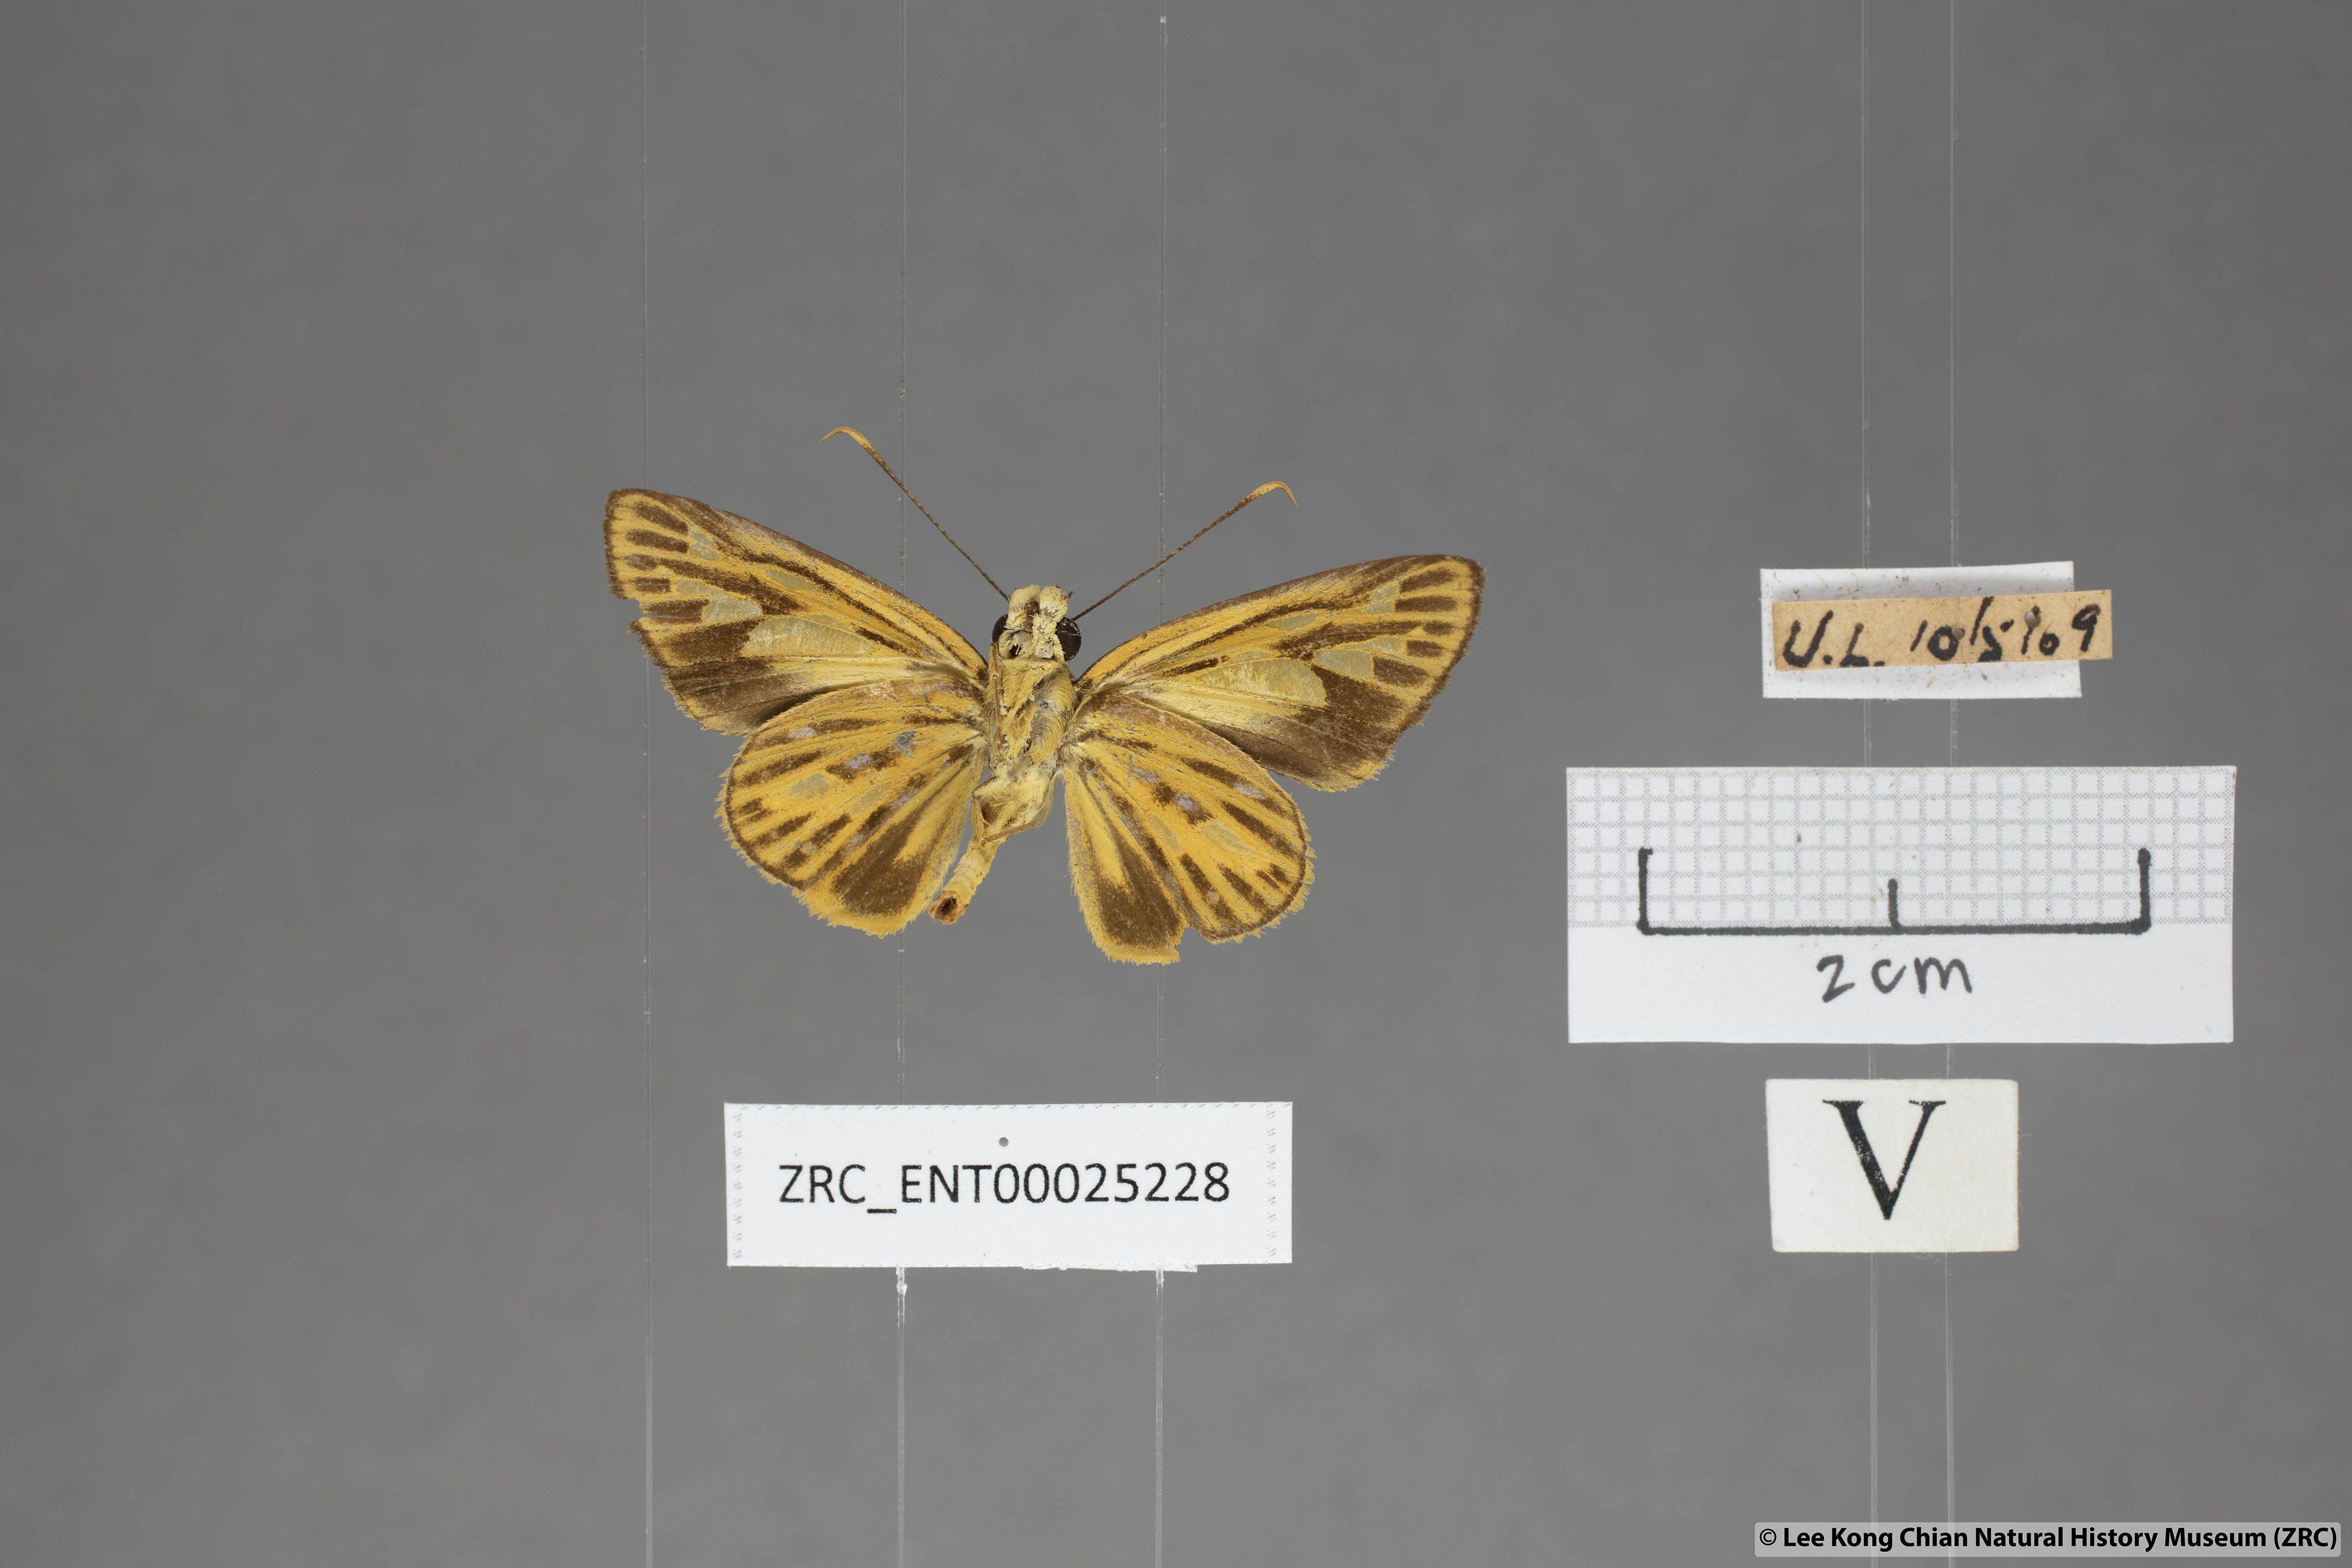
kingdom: Animalia
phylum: Arthropoda
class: Insecta
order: Lepidoptera
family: Hesperiidae
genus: Pyroneura
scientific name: Pyroneura flavia
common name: Lesser lancer
